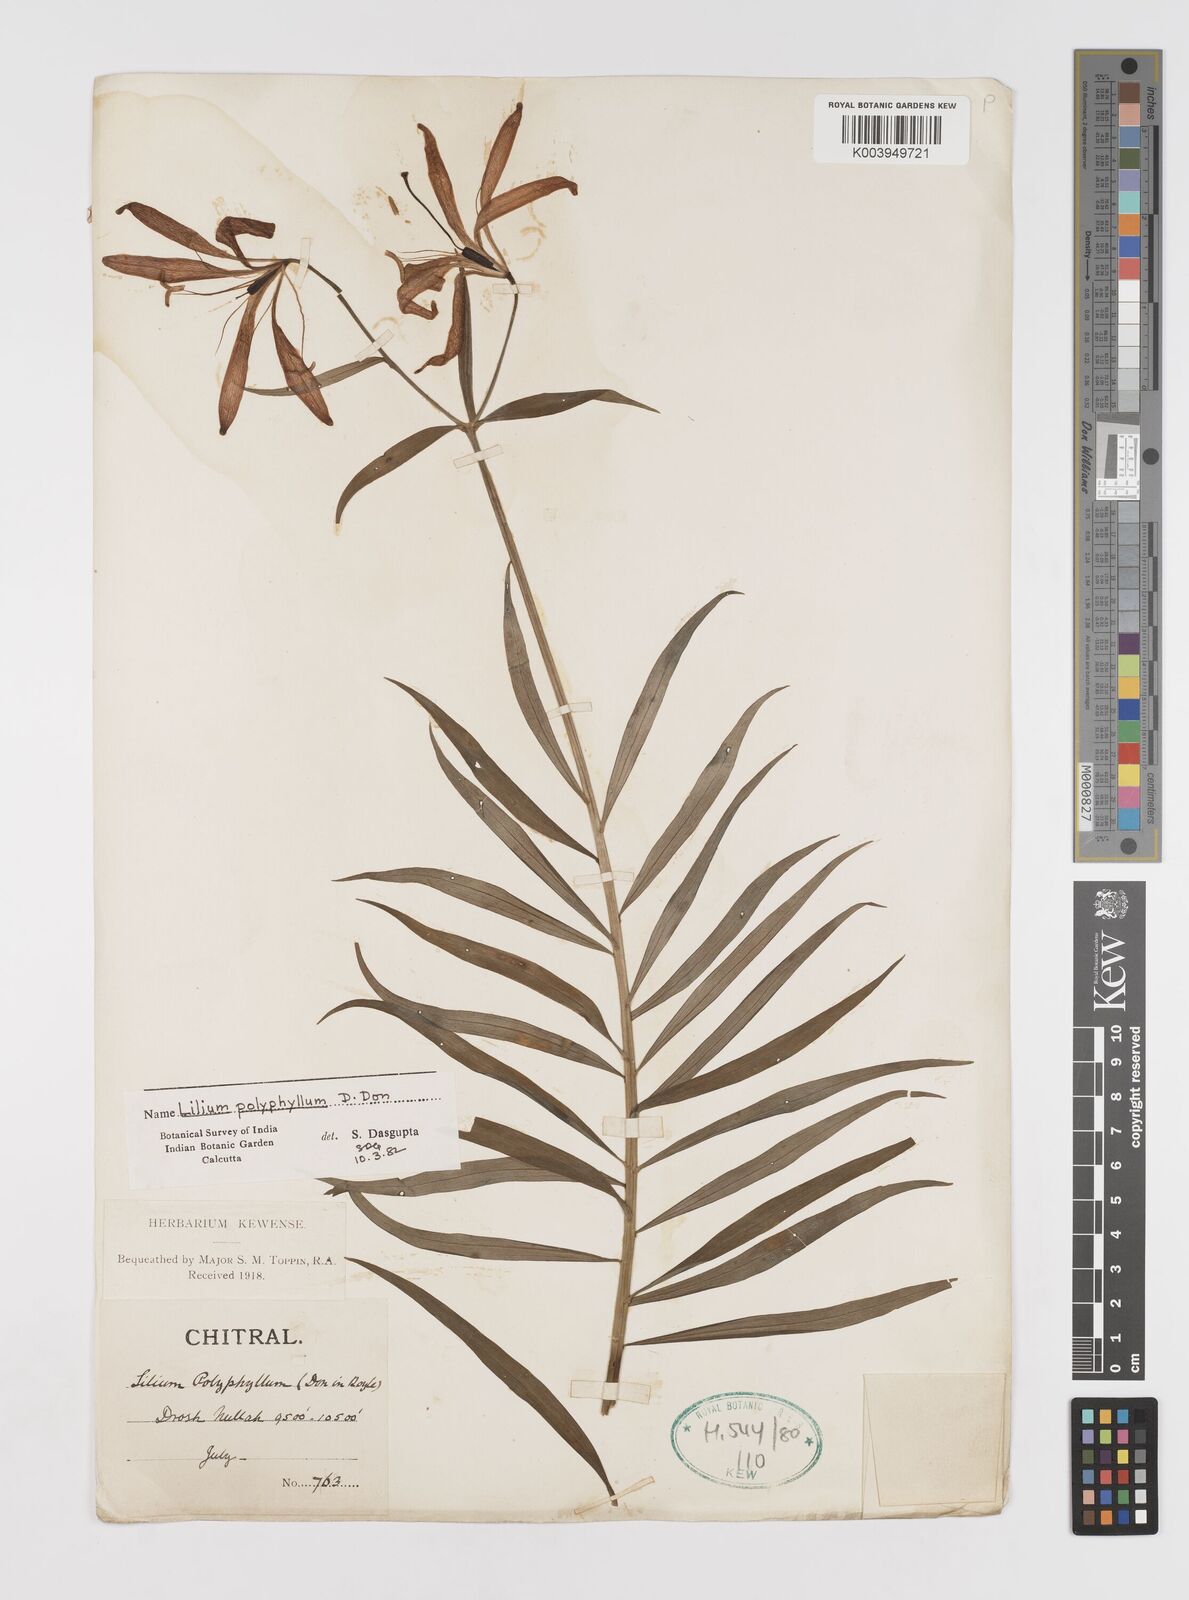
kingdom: Plantae
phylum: Tracheophyta
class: Liliopsida
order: Liliales
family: Liliaceae
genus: Lilium
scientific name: Lilium polyphyllum
